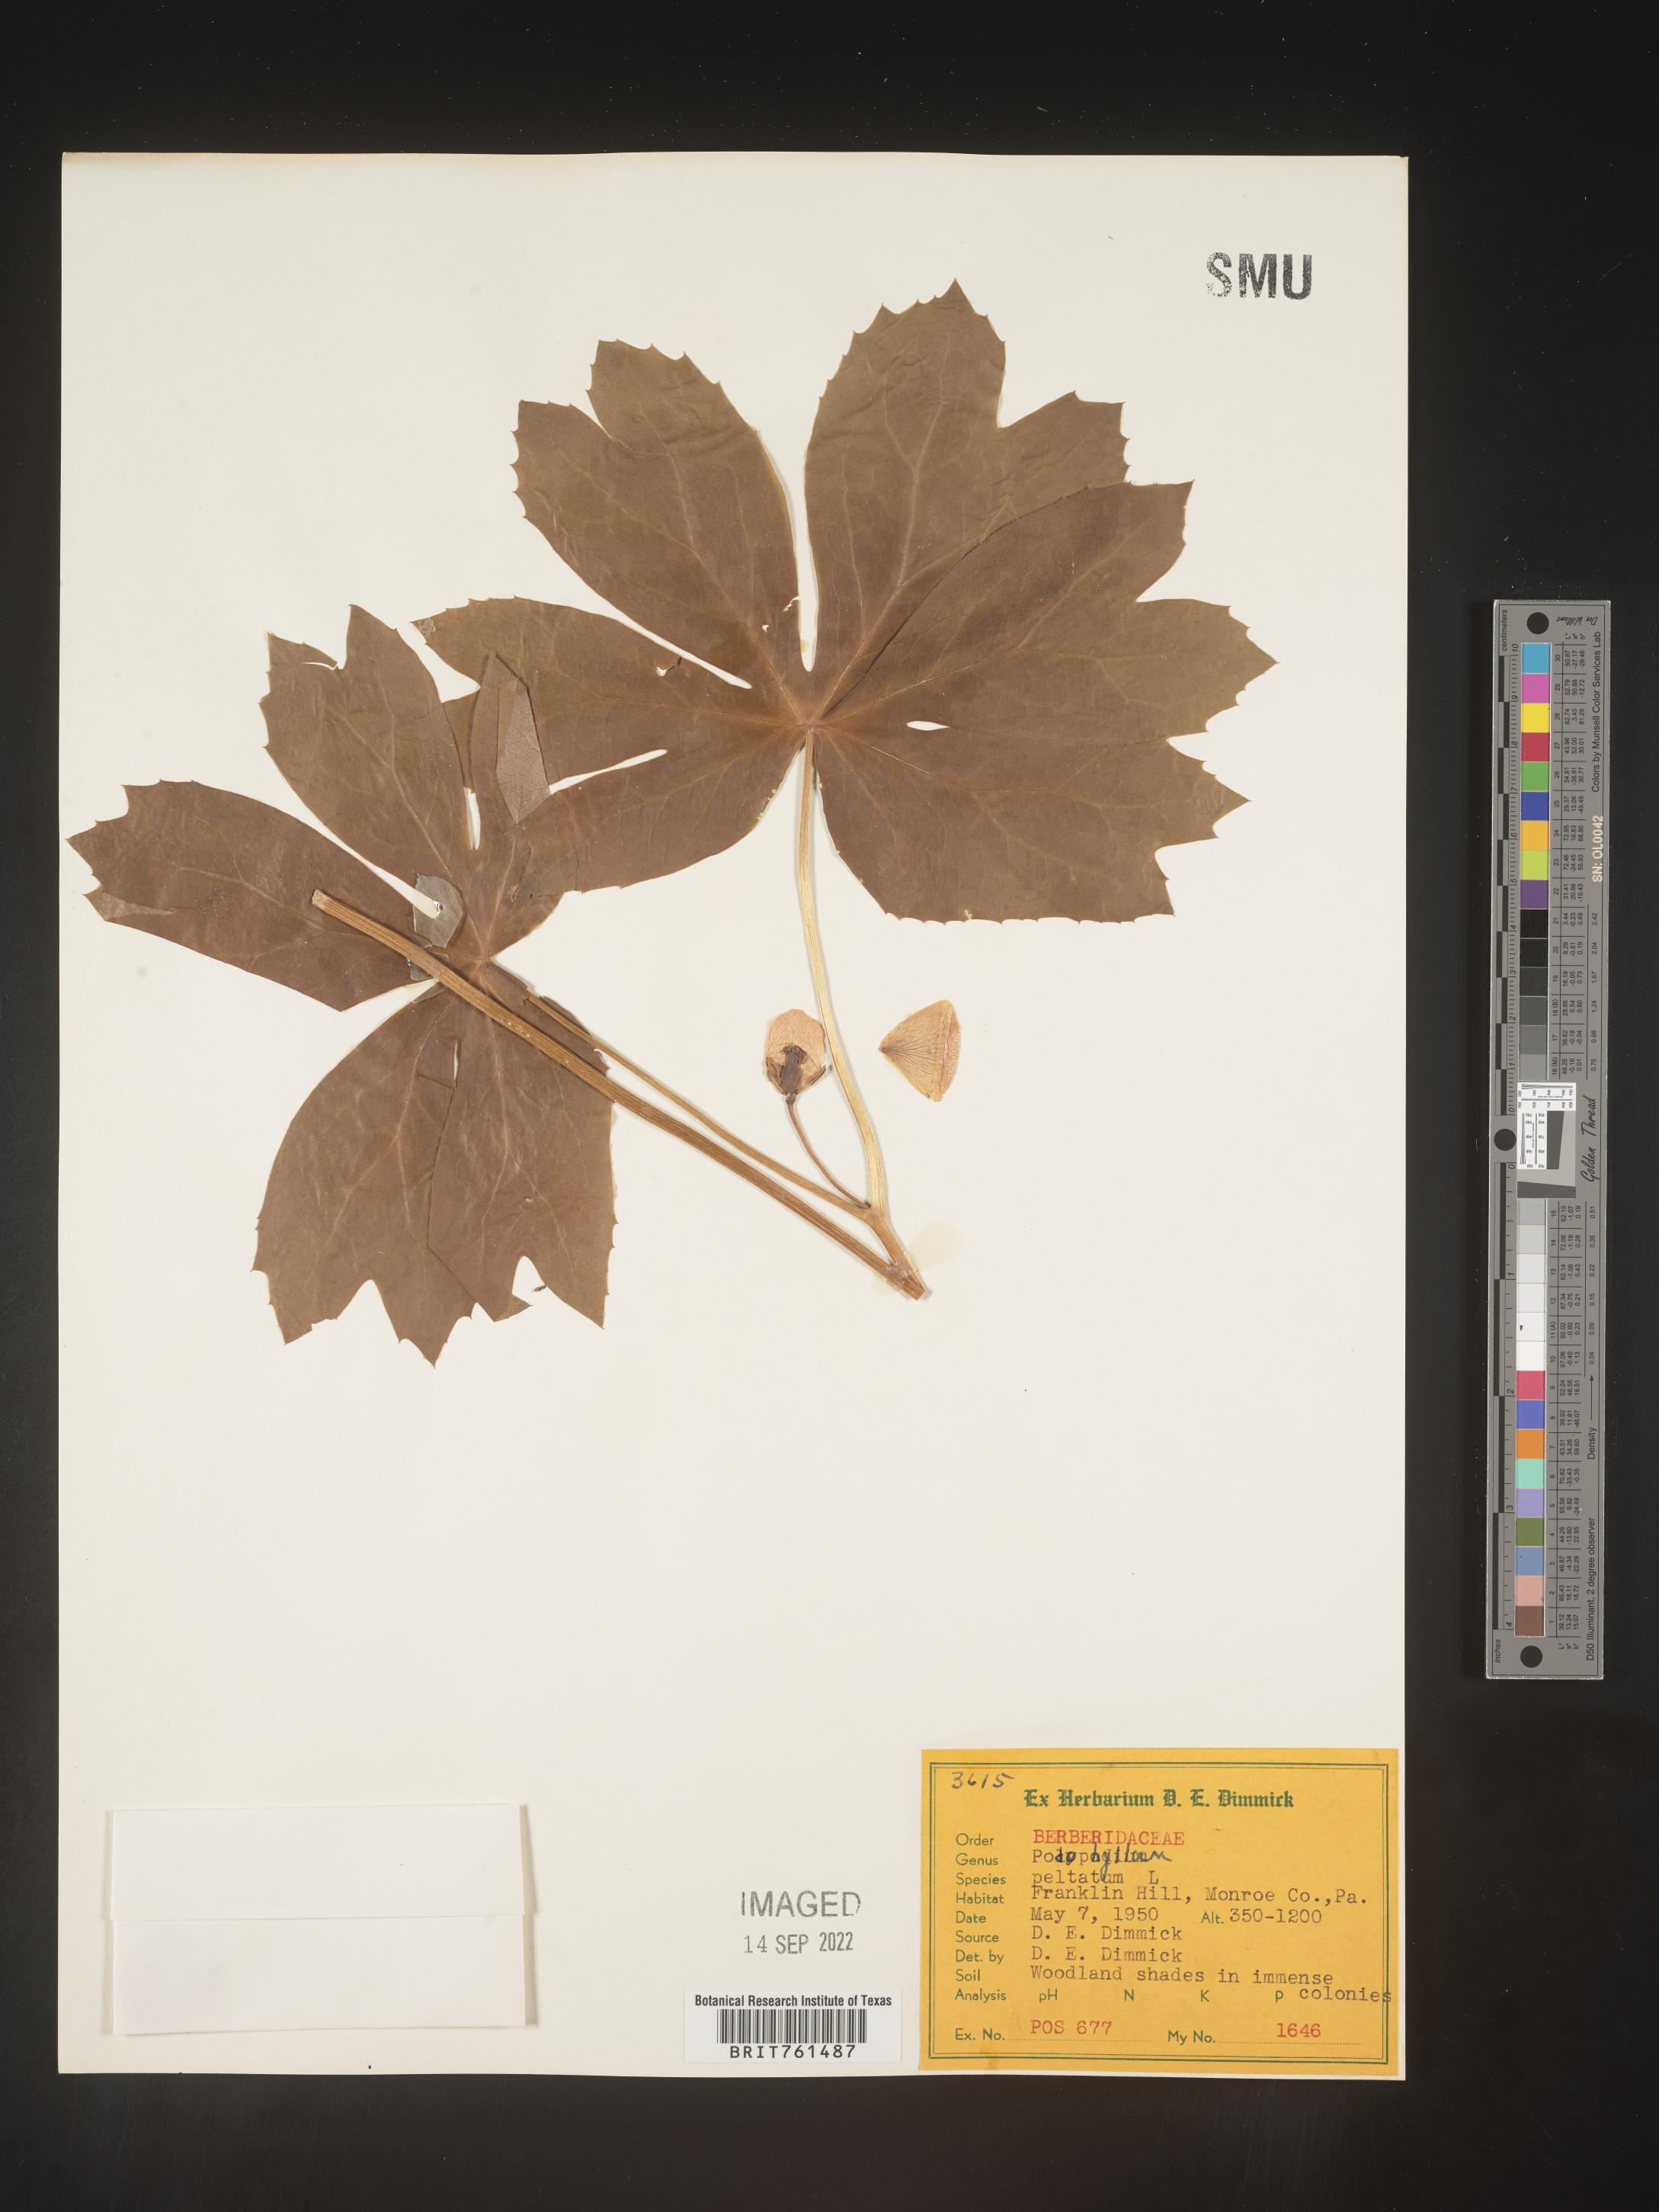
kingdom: Plantae
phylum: Tracheophyta
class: Magnoliopsida
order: Ranunculales
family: Berberidaceae
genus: Podophyllum
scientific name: Podophyllum peltatum
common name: Wild mandrake
